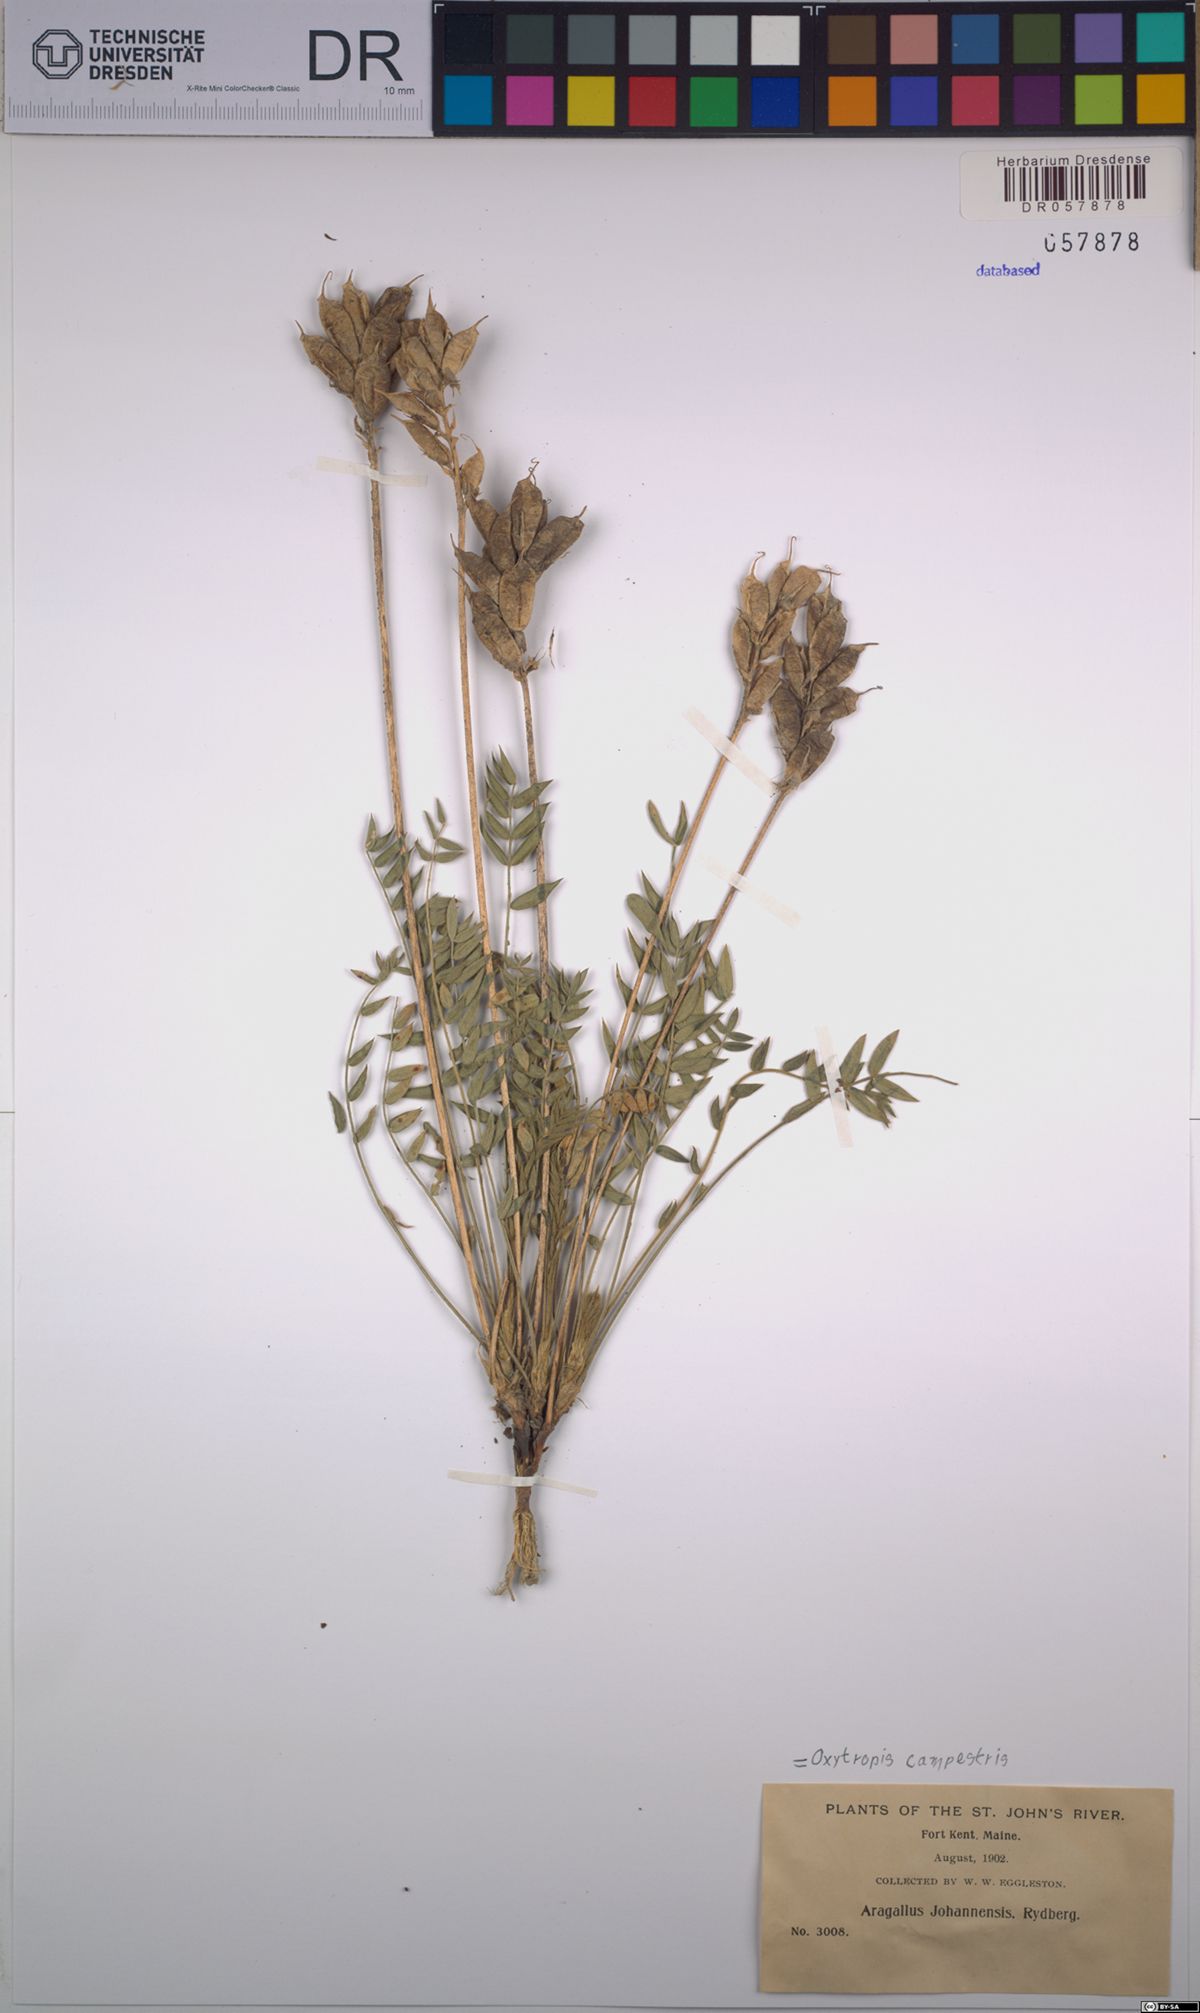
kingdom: Plantae
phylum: Tracheophyta
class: Magnoliopsida
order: Fabales
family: Fabaceae
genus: Oxytropis
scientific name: Oxytropis campestris
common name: Field locoweed
